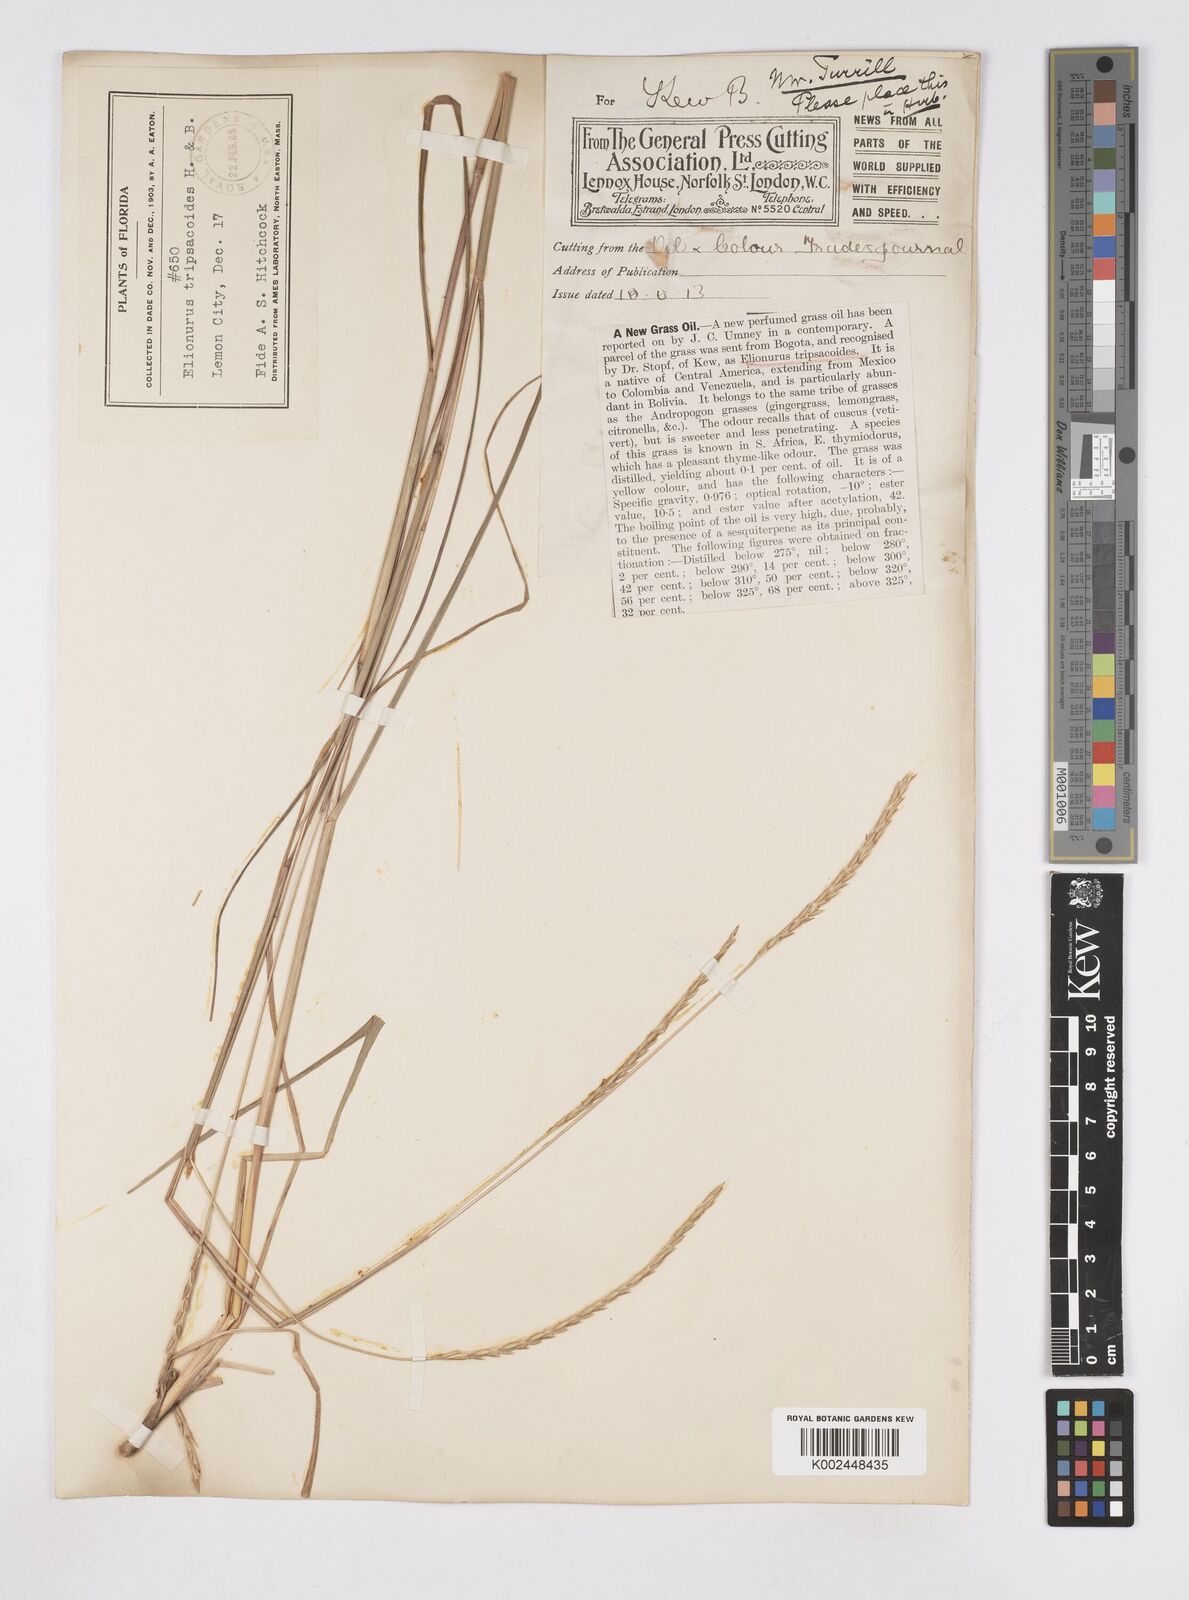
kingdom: Plantae
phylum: Tracheophyta
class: Liliopsida
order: Poales
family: Poaceae
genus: Elionurus
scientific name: Elionurus tripsacoides
